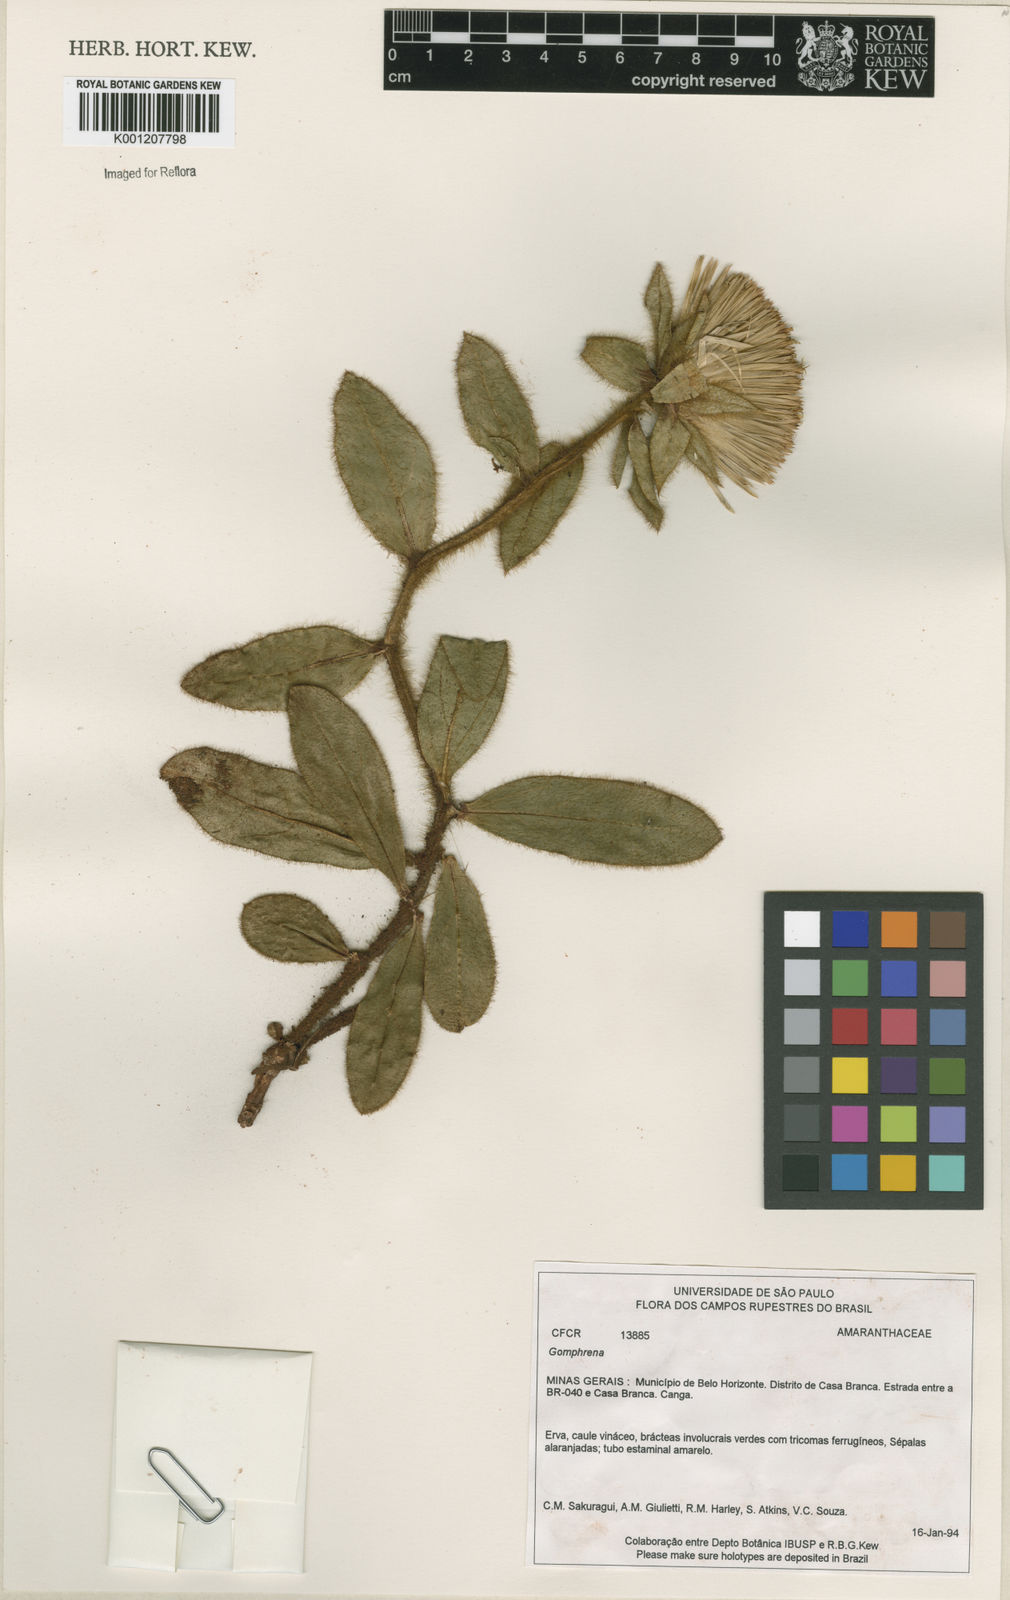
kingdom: Plantae
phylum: Tracheophyta
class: Magnoliopsida
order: Caryophyllales
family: Amaranthaceae
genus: Gomphrena
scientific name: Gomphrena
